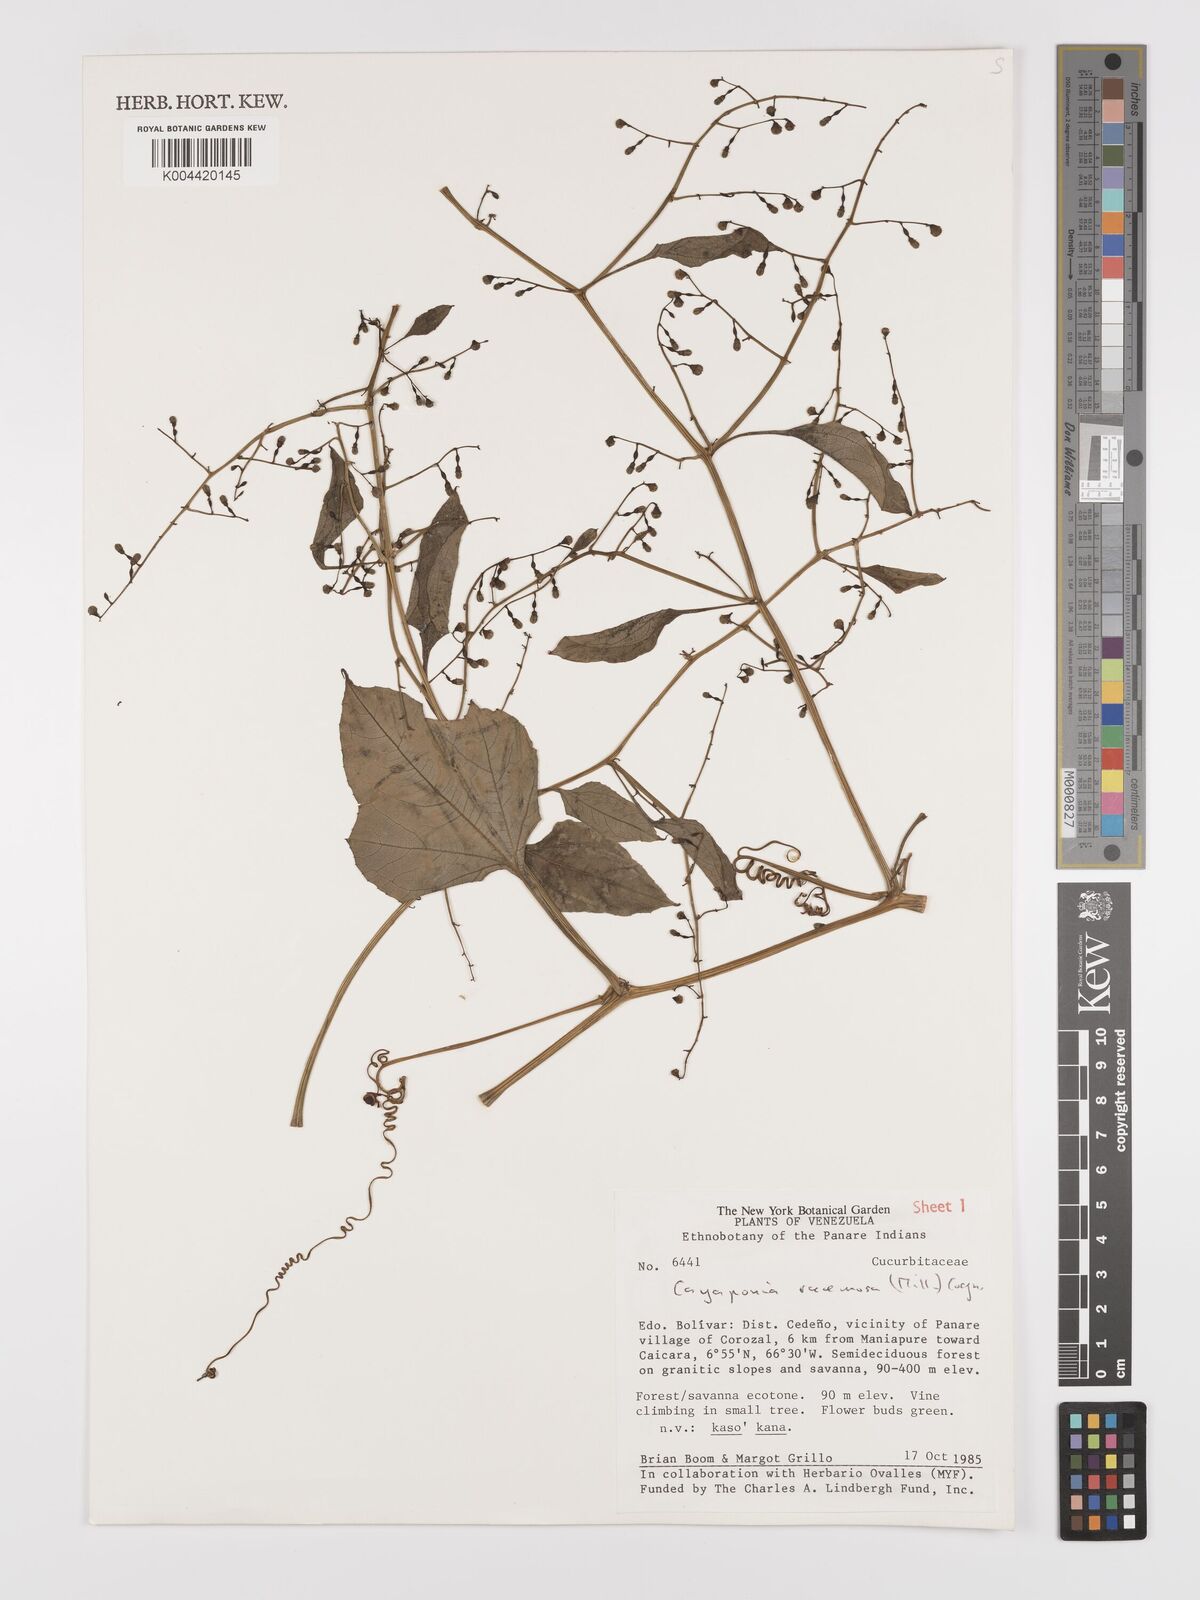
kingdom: Plantae
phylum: Tracheophyta
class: Magnoliopsida
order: Cucurbitales
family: Cucurbitaceae
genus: Cayaponia
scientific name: Cayaponia racemosa
